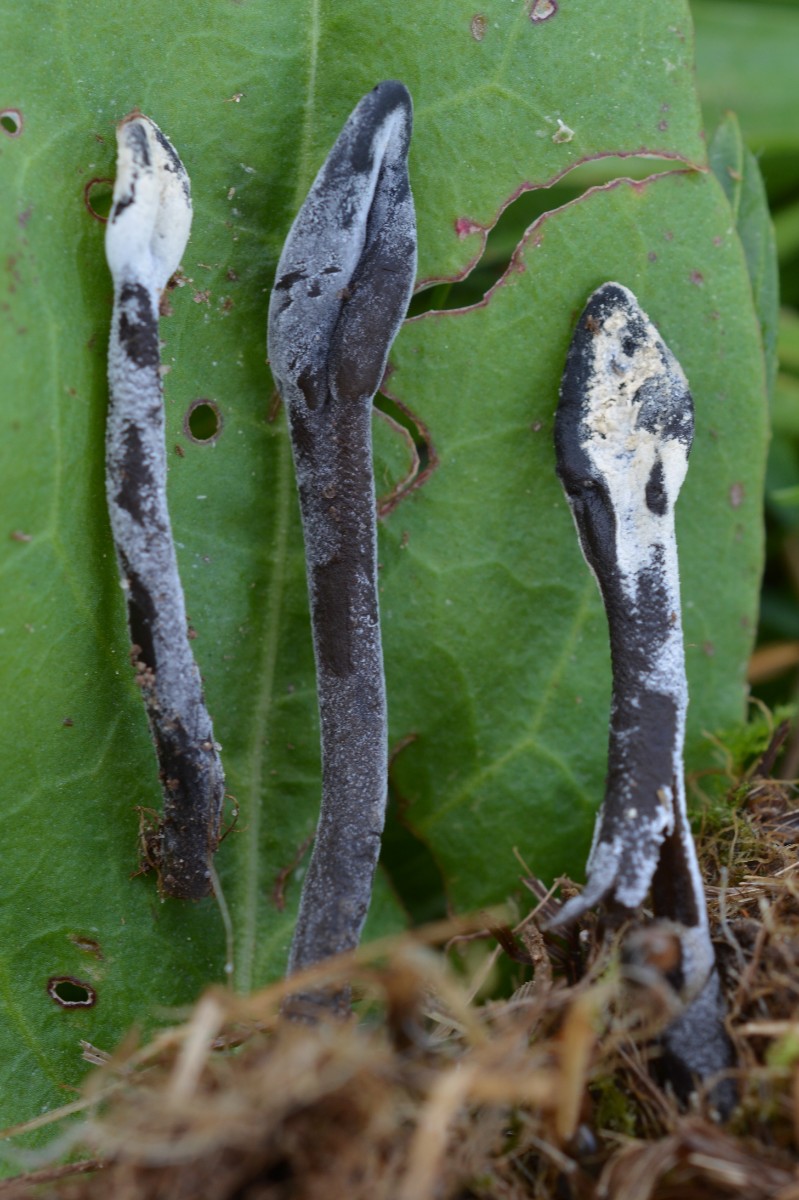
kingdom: Fungi
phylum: Ascomycota
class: Geoglossomycetes
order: Geoglossales
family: Geoglossaceae
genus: Geoglossum
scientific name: Geoglossum fallax
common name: småskællet jordtunge
